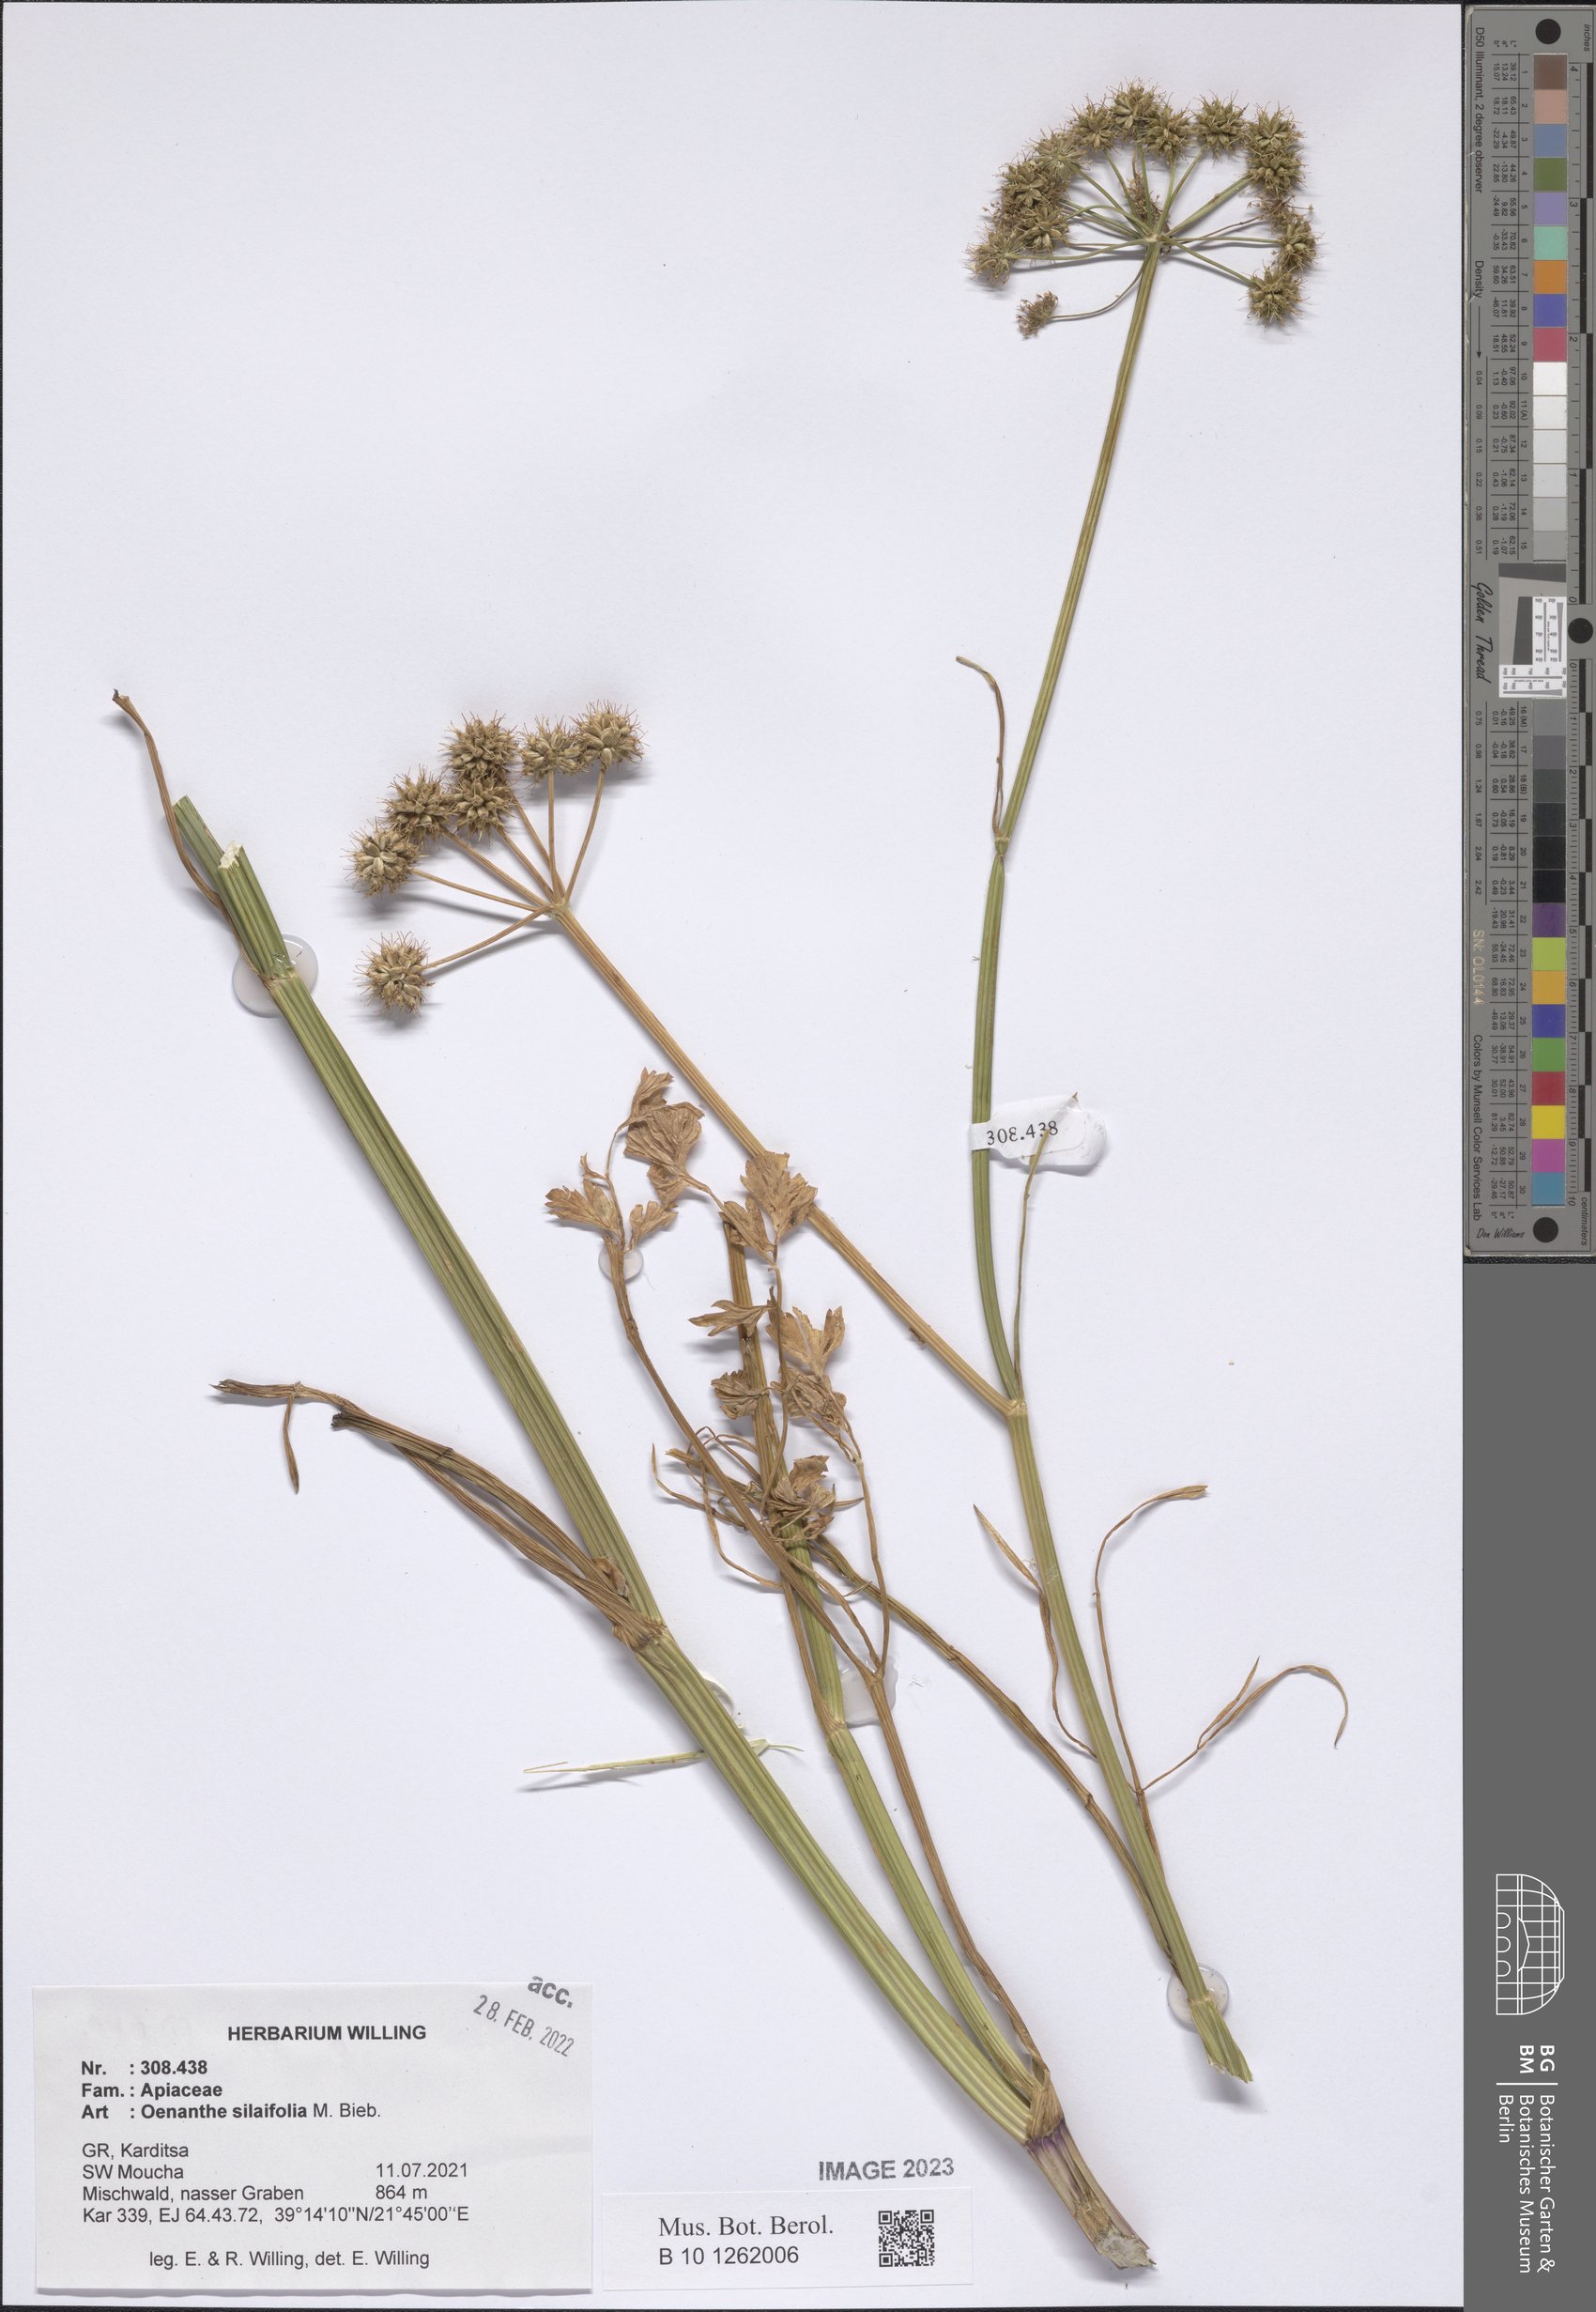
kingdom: Plantae
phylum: Tracheophyta
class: Magnoliopsida
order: Apiales
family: Apiaceae
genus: Oenanthe
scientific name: Oenanthe silaifolia
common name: Narrow-leaved water-dropwort
